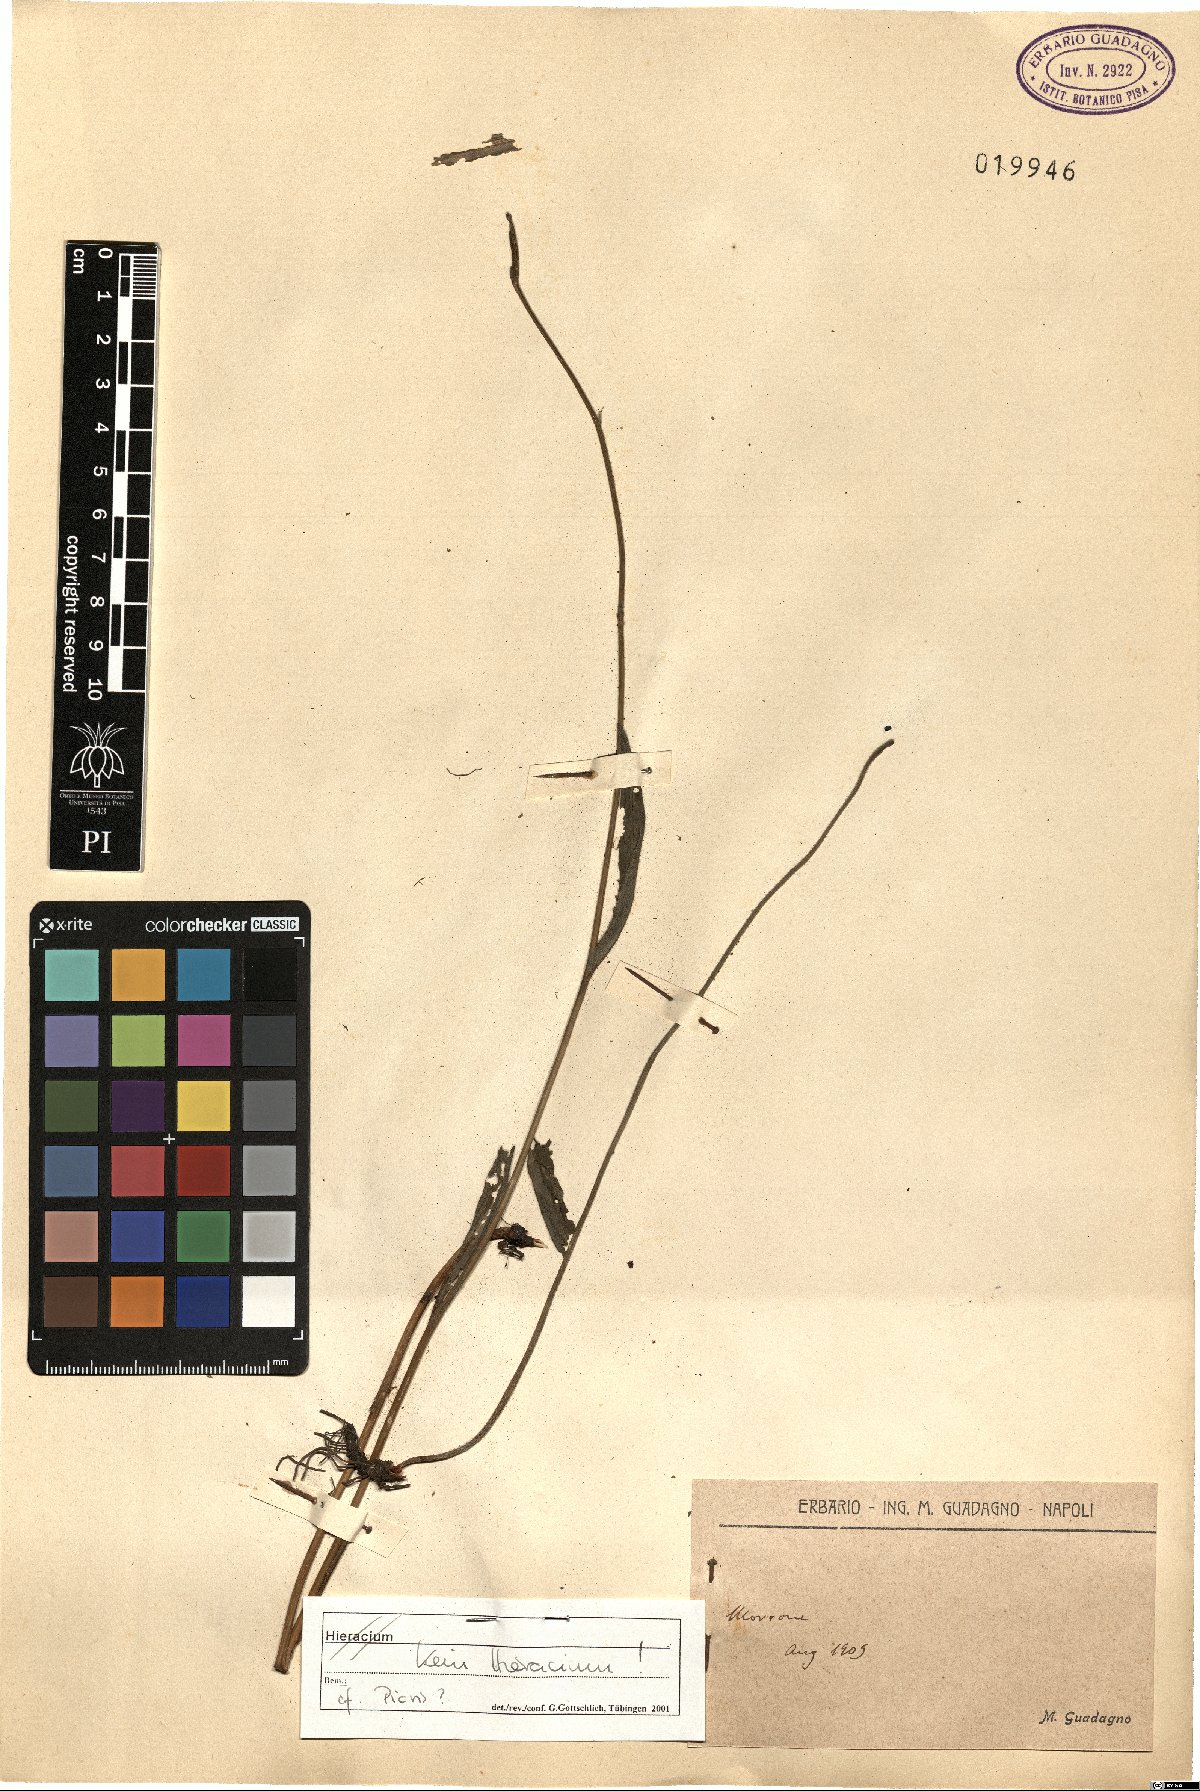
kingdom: Plantae
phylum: Tracheophyta
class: Magnoliopsida
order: Asterales
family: Asteraceae
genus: Picris
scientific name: Picris
